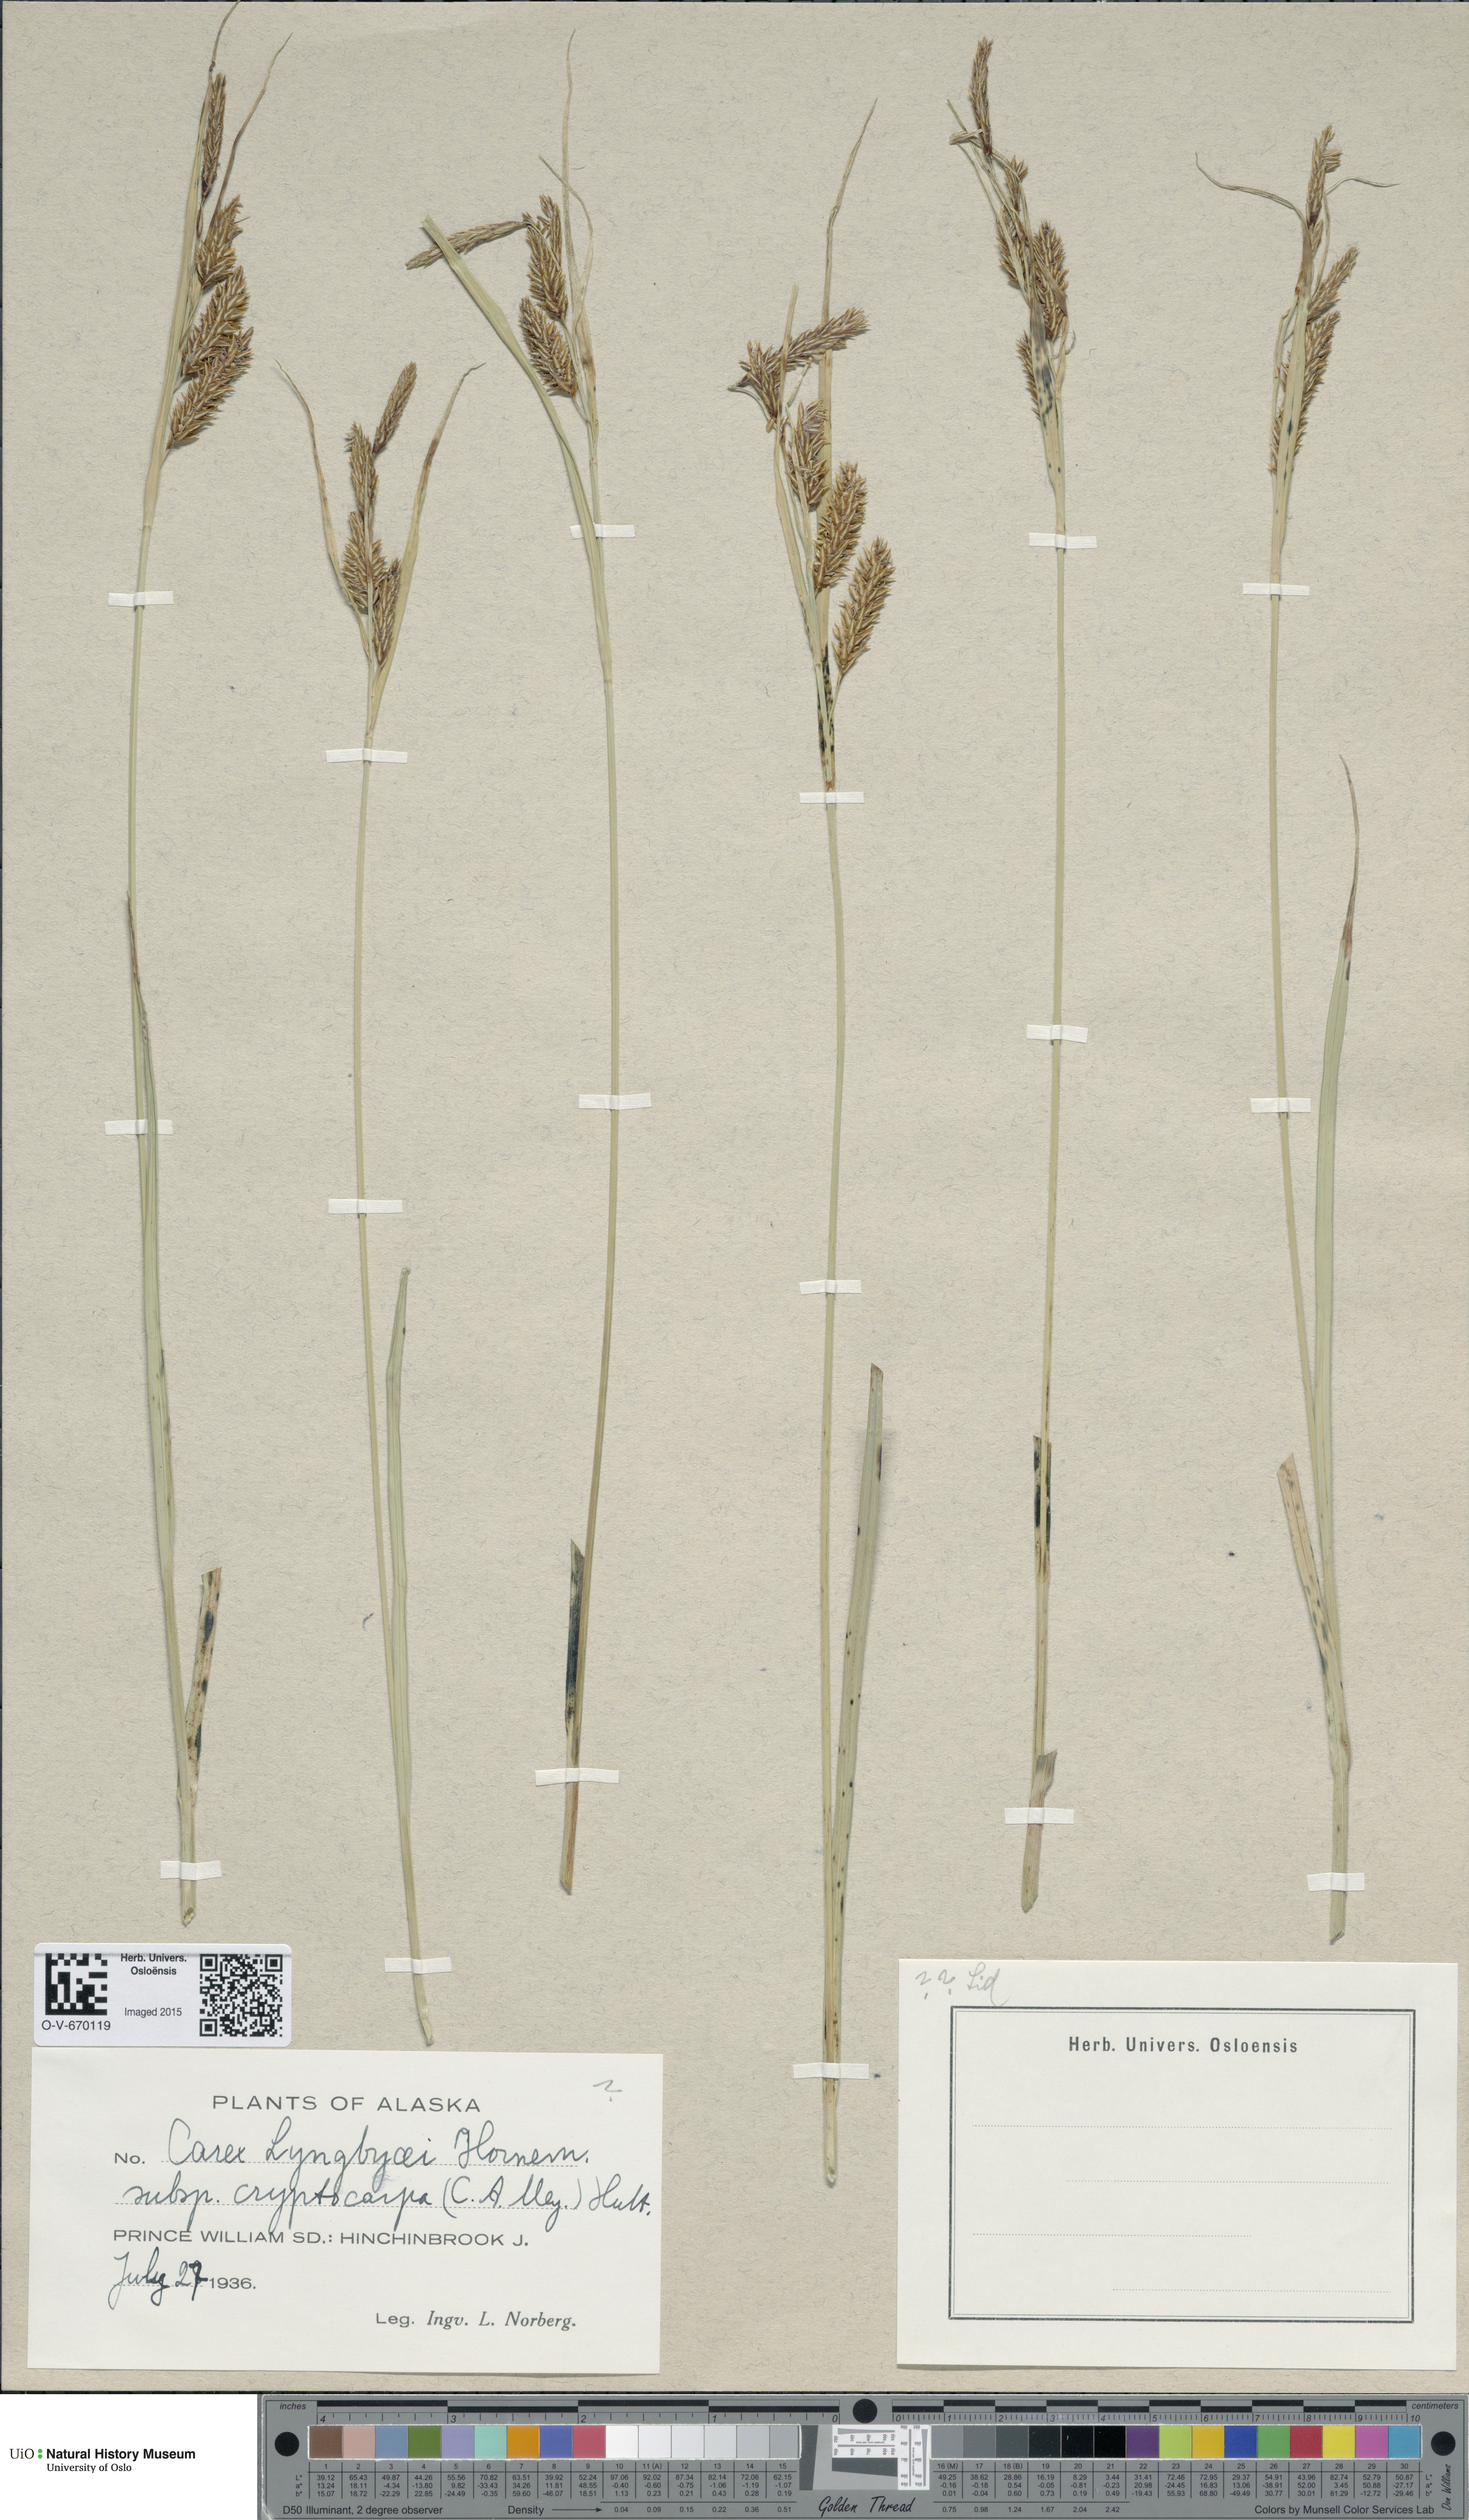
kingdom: Plantae
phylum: Tracheophyta
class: Liliopsida
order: Poales
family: Cyperaceae
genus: Carex
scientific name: Carex lyngbyei
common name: Lyngbye's sedge
